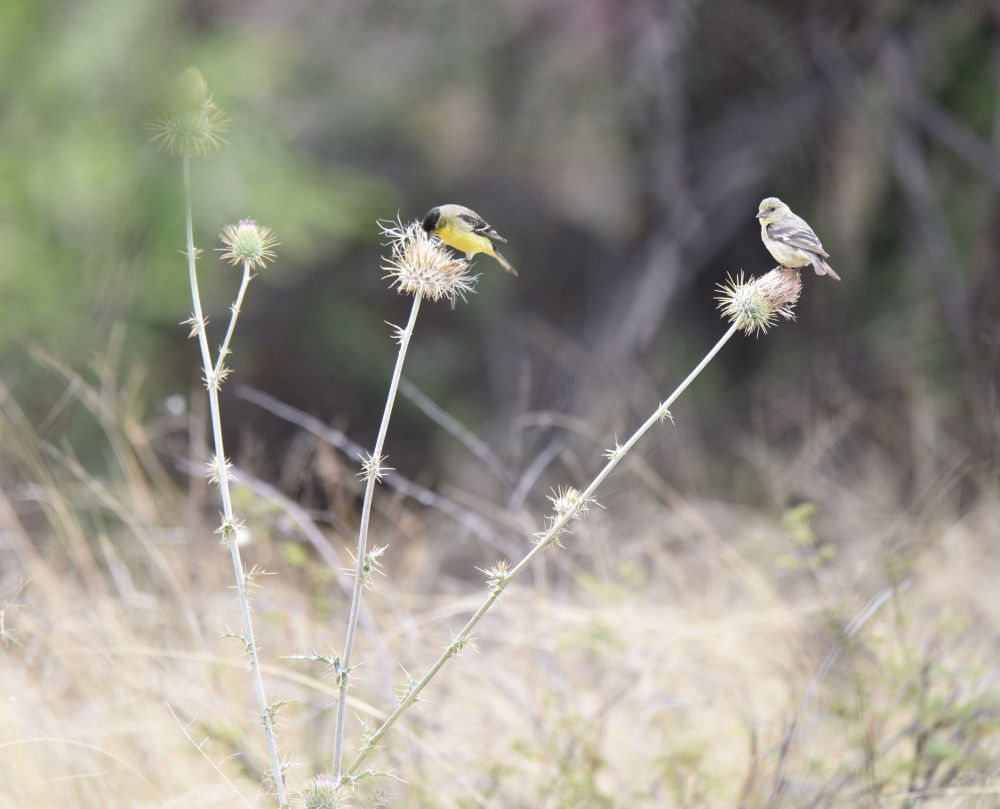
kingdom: Animalia
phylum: Chordata
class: Aves
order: Passeriformes
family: Fringillidae
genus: Spinus
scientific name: Spinus psaltria
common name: Lesser goldfinch
